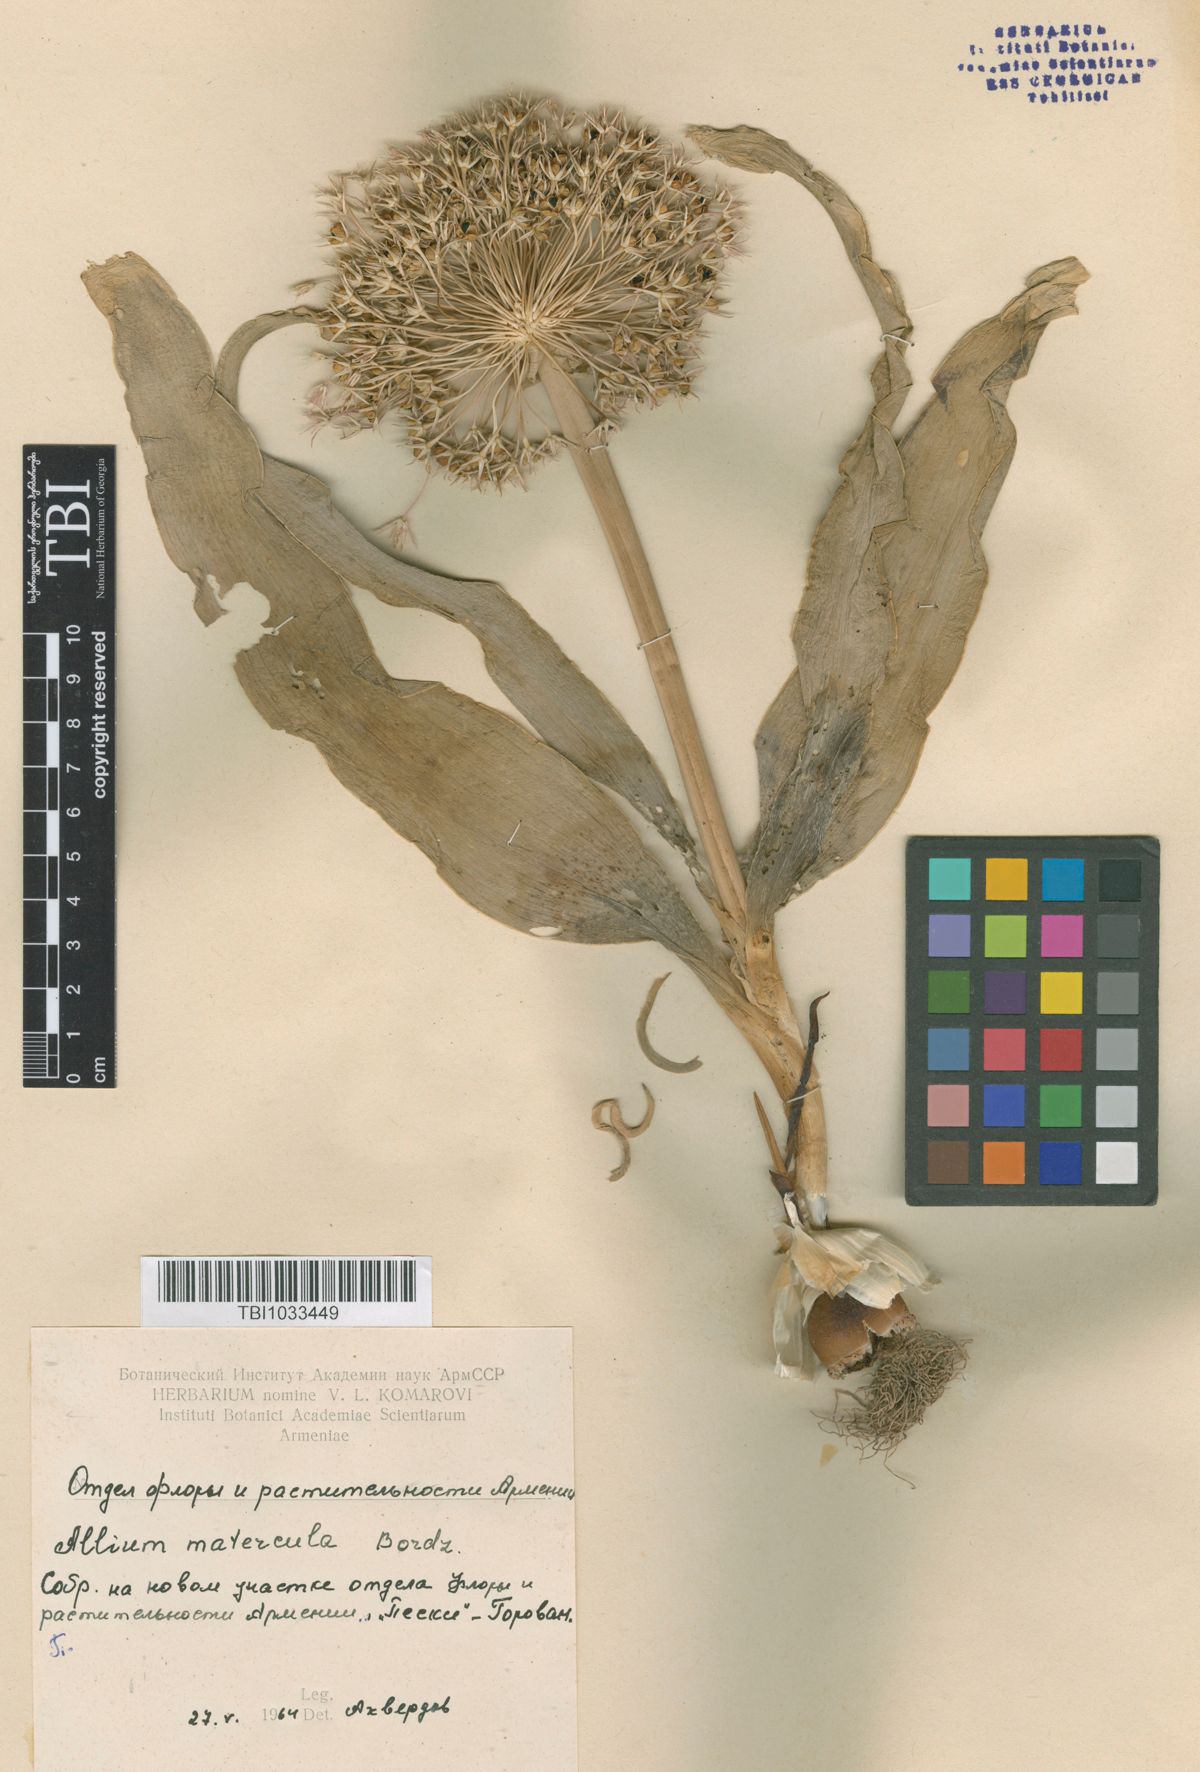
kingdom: Plantae
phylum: Tracheophyta
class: Liliopsida
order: Asparagales
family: Amaryllidaceae
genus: Allium
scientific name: Allium materculae
